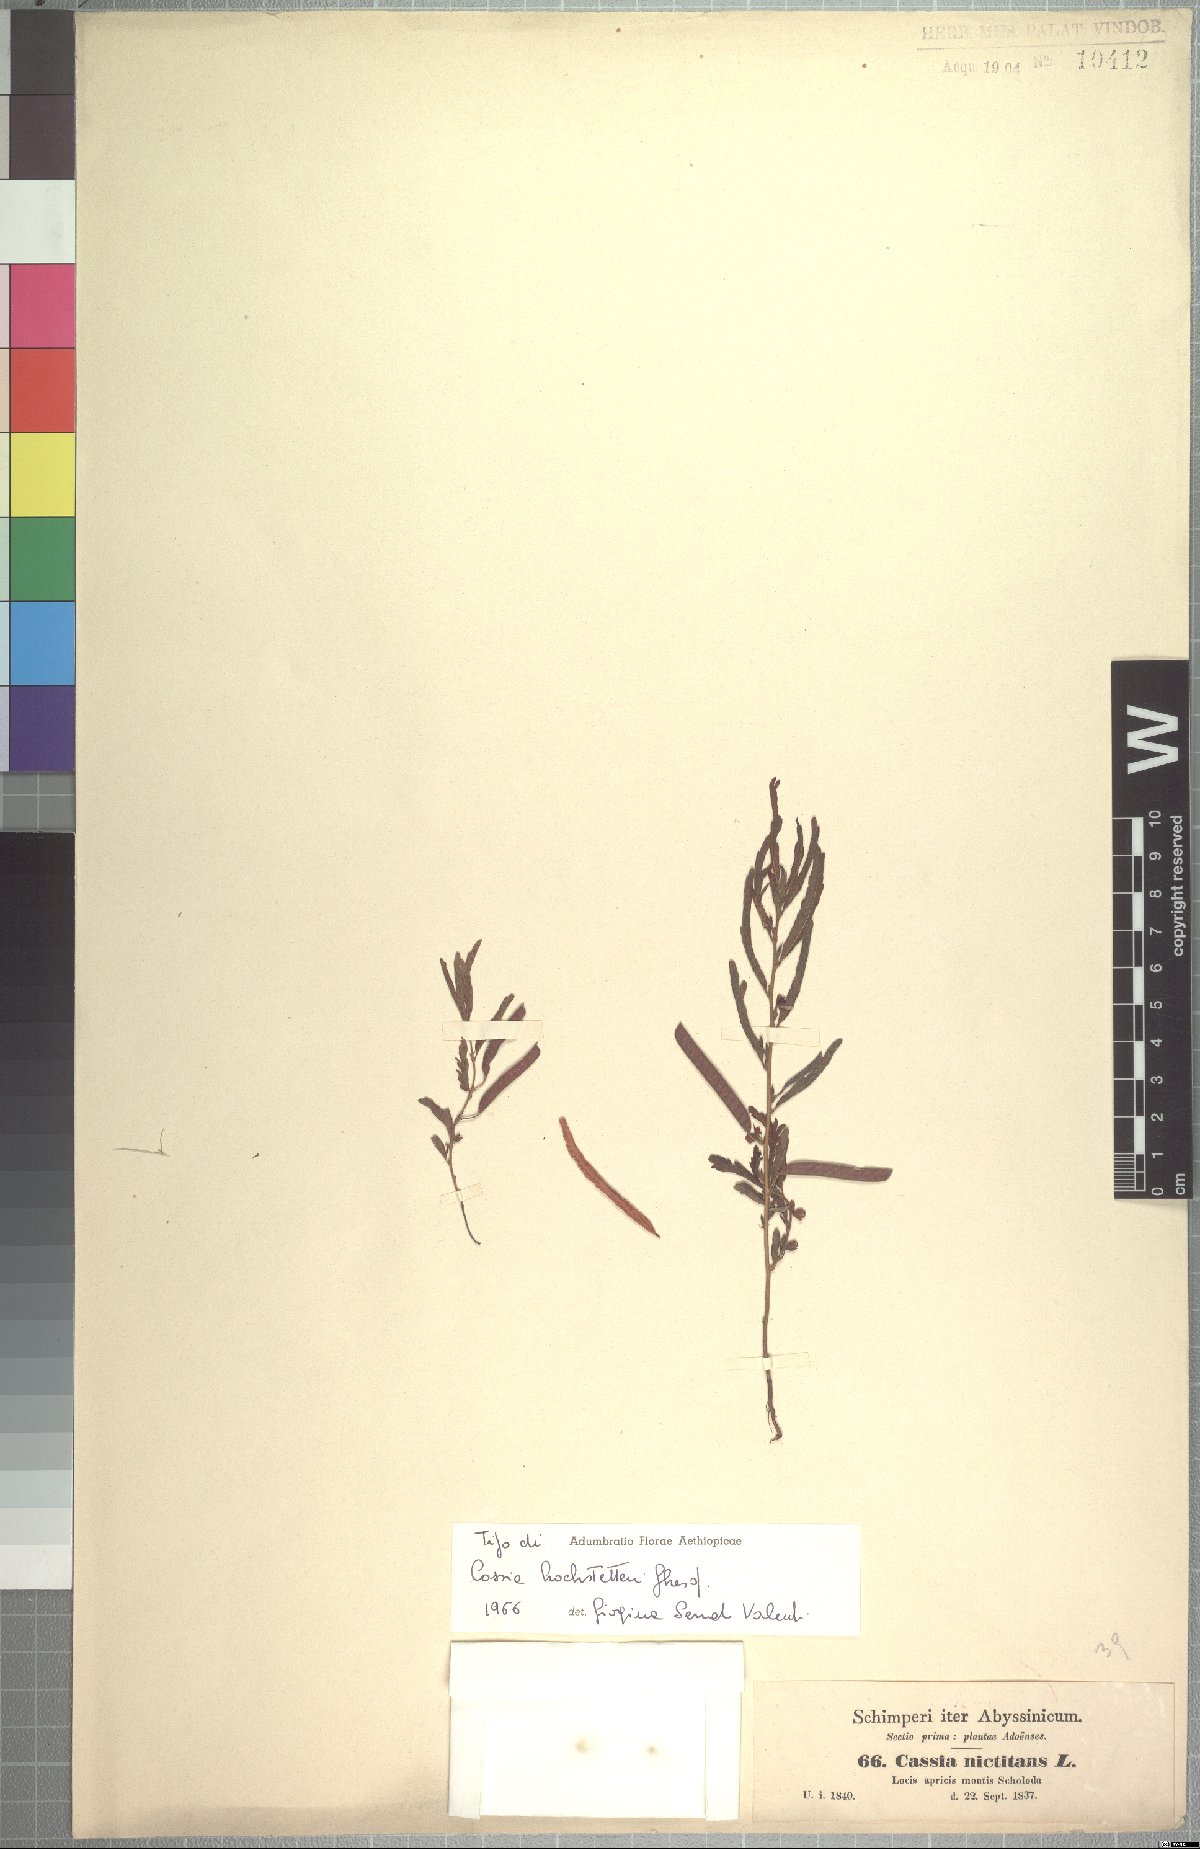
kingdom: Plantae
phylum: Tracheophyta
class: Magnoliopsida
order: Fabales
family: Fabaceae
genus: Chamaecrista
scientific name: Chamaecrista
